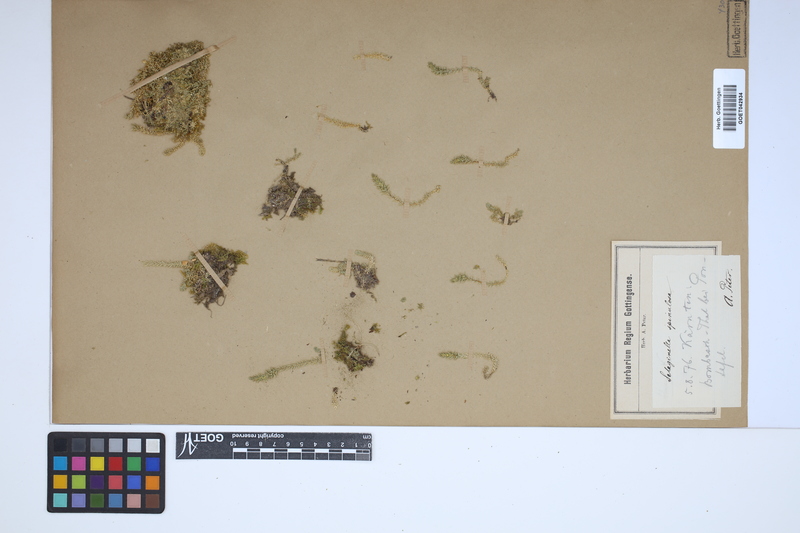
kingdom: Plantae
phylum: Tracheophyta
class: Lycopodiopsida
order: Selaginellales
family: Selaginellaceae
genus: Selaginella
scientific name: Selaginella selaginoides
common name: Prickly mountain-moss
